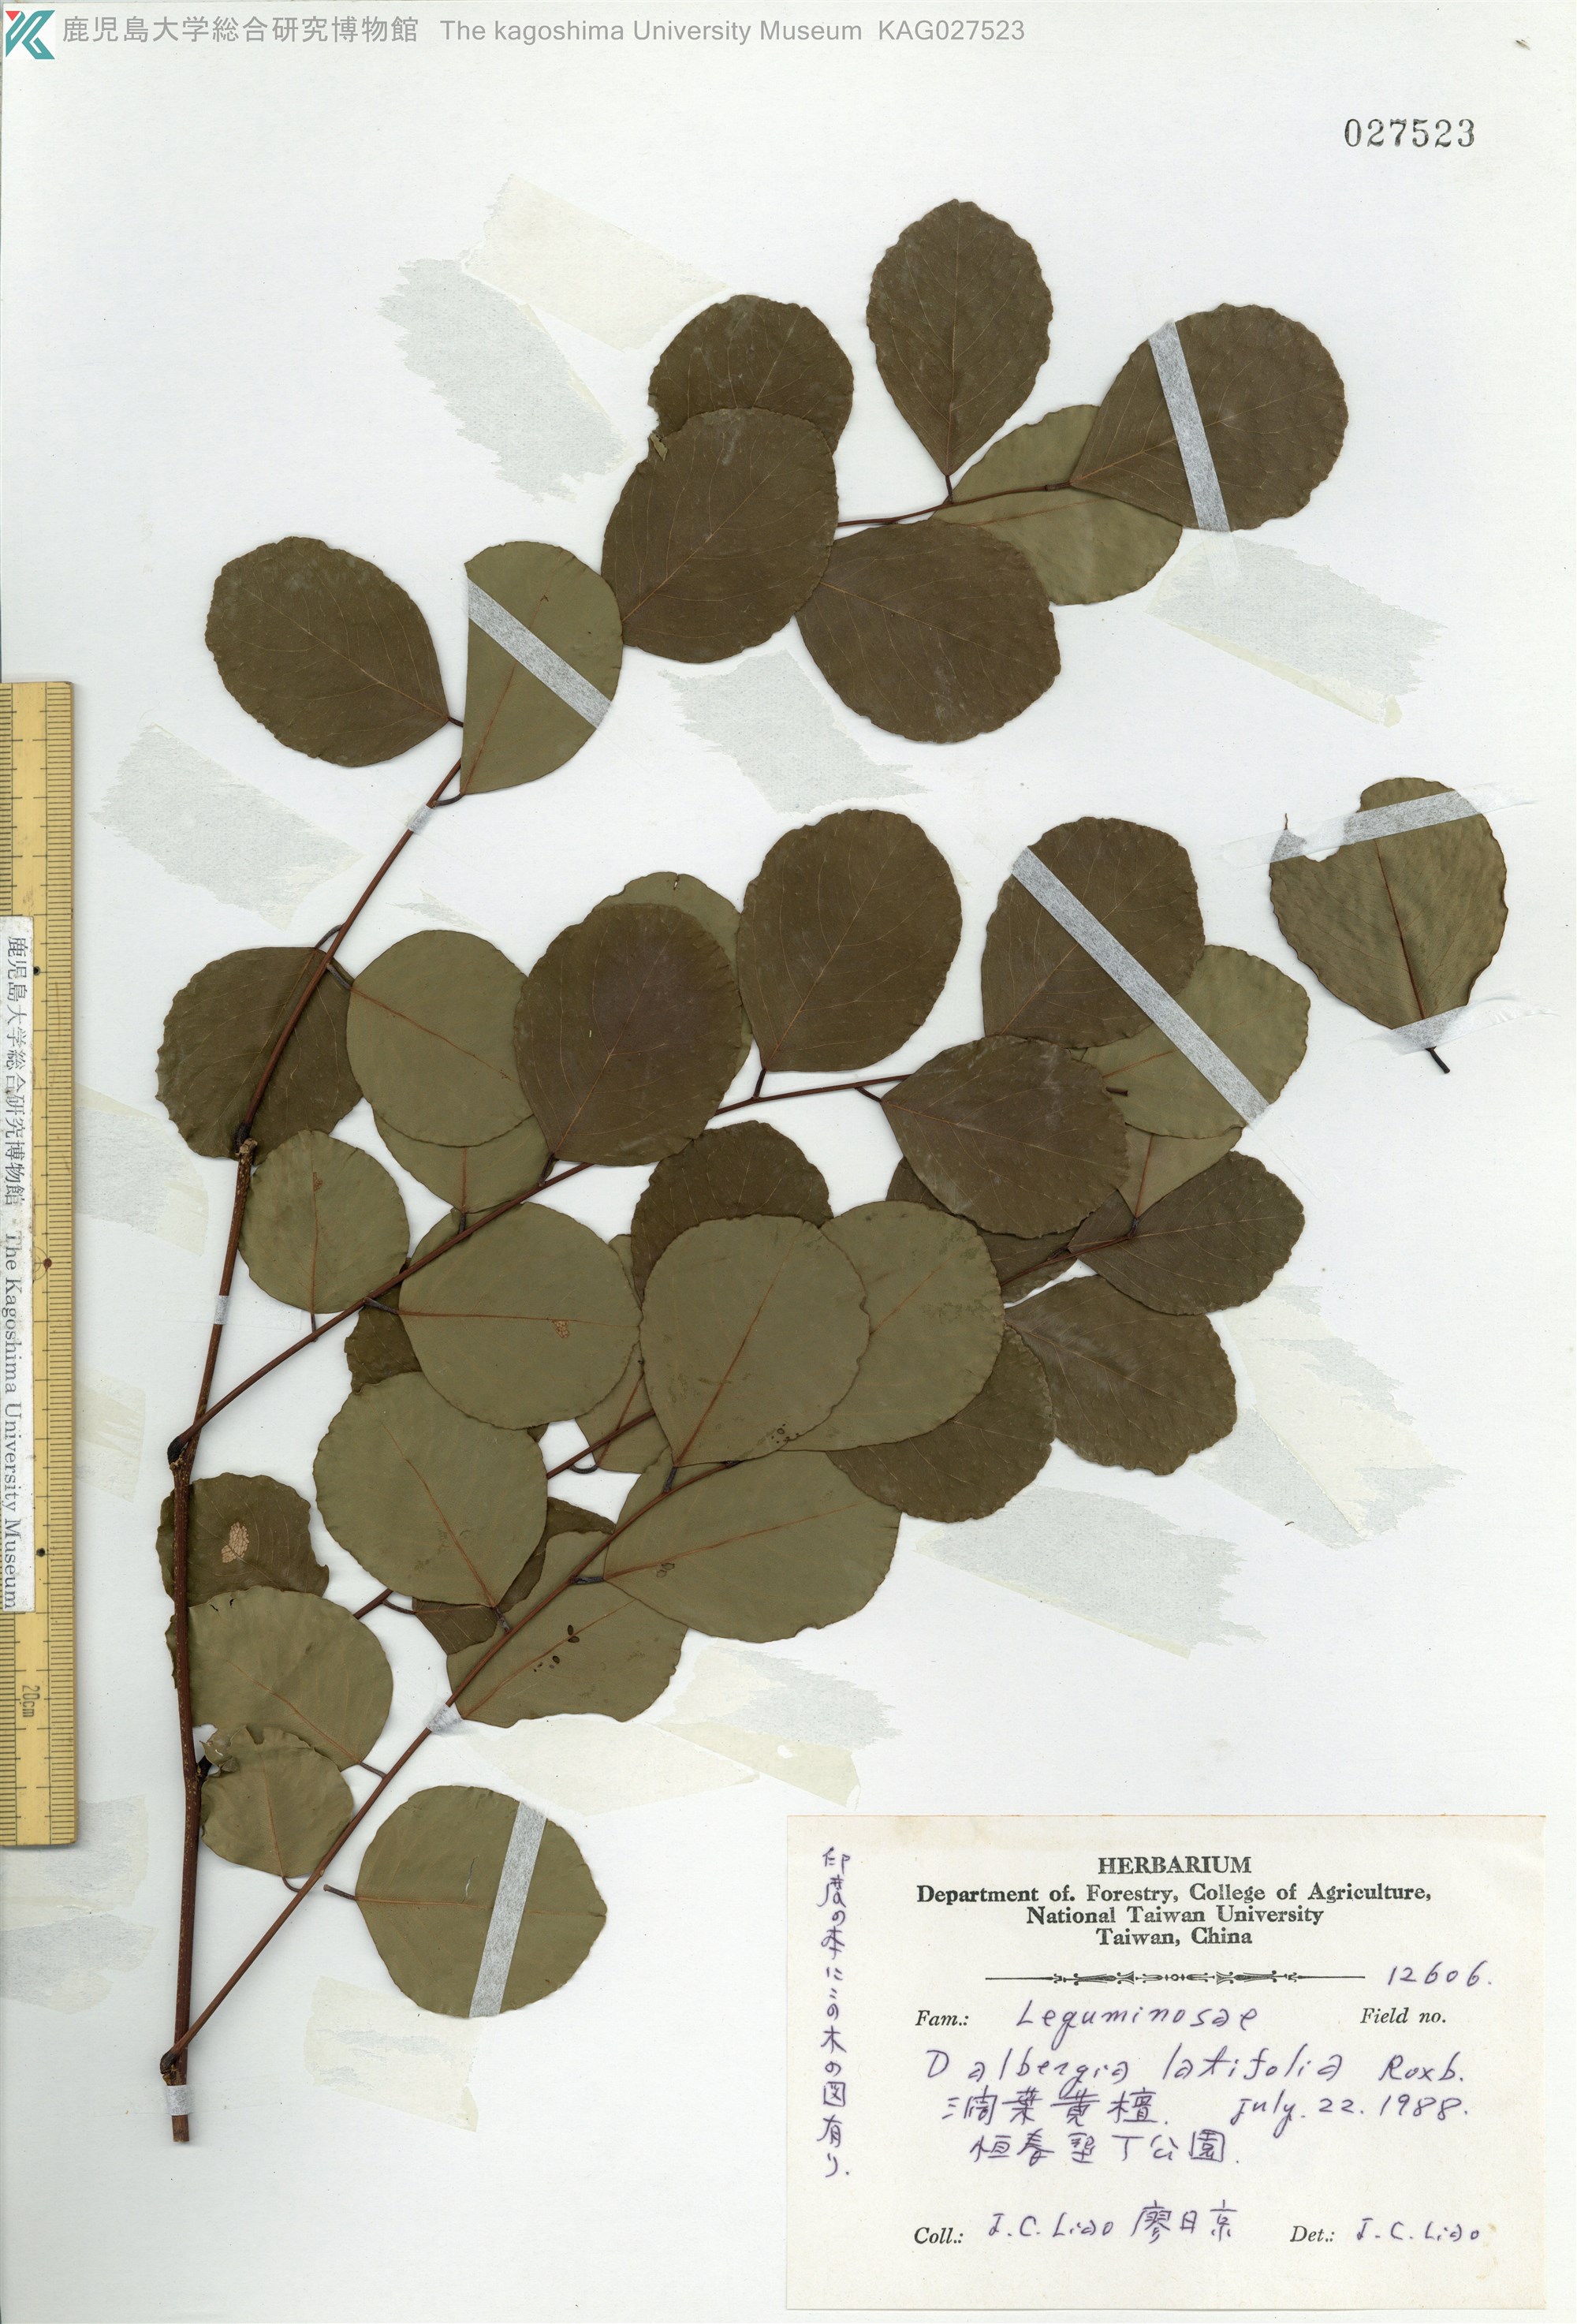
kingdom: Plantae
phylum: Tracheophyta
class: Magnoliopsida
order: Fabales
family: Fabaceae
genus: Dalbergia
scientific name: Dalbergia latifolia
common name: Bombay blackwood
